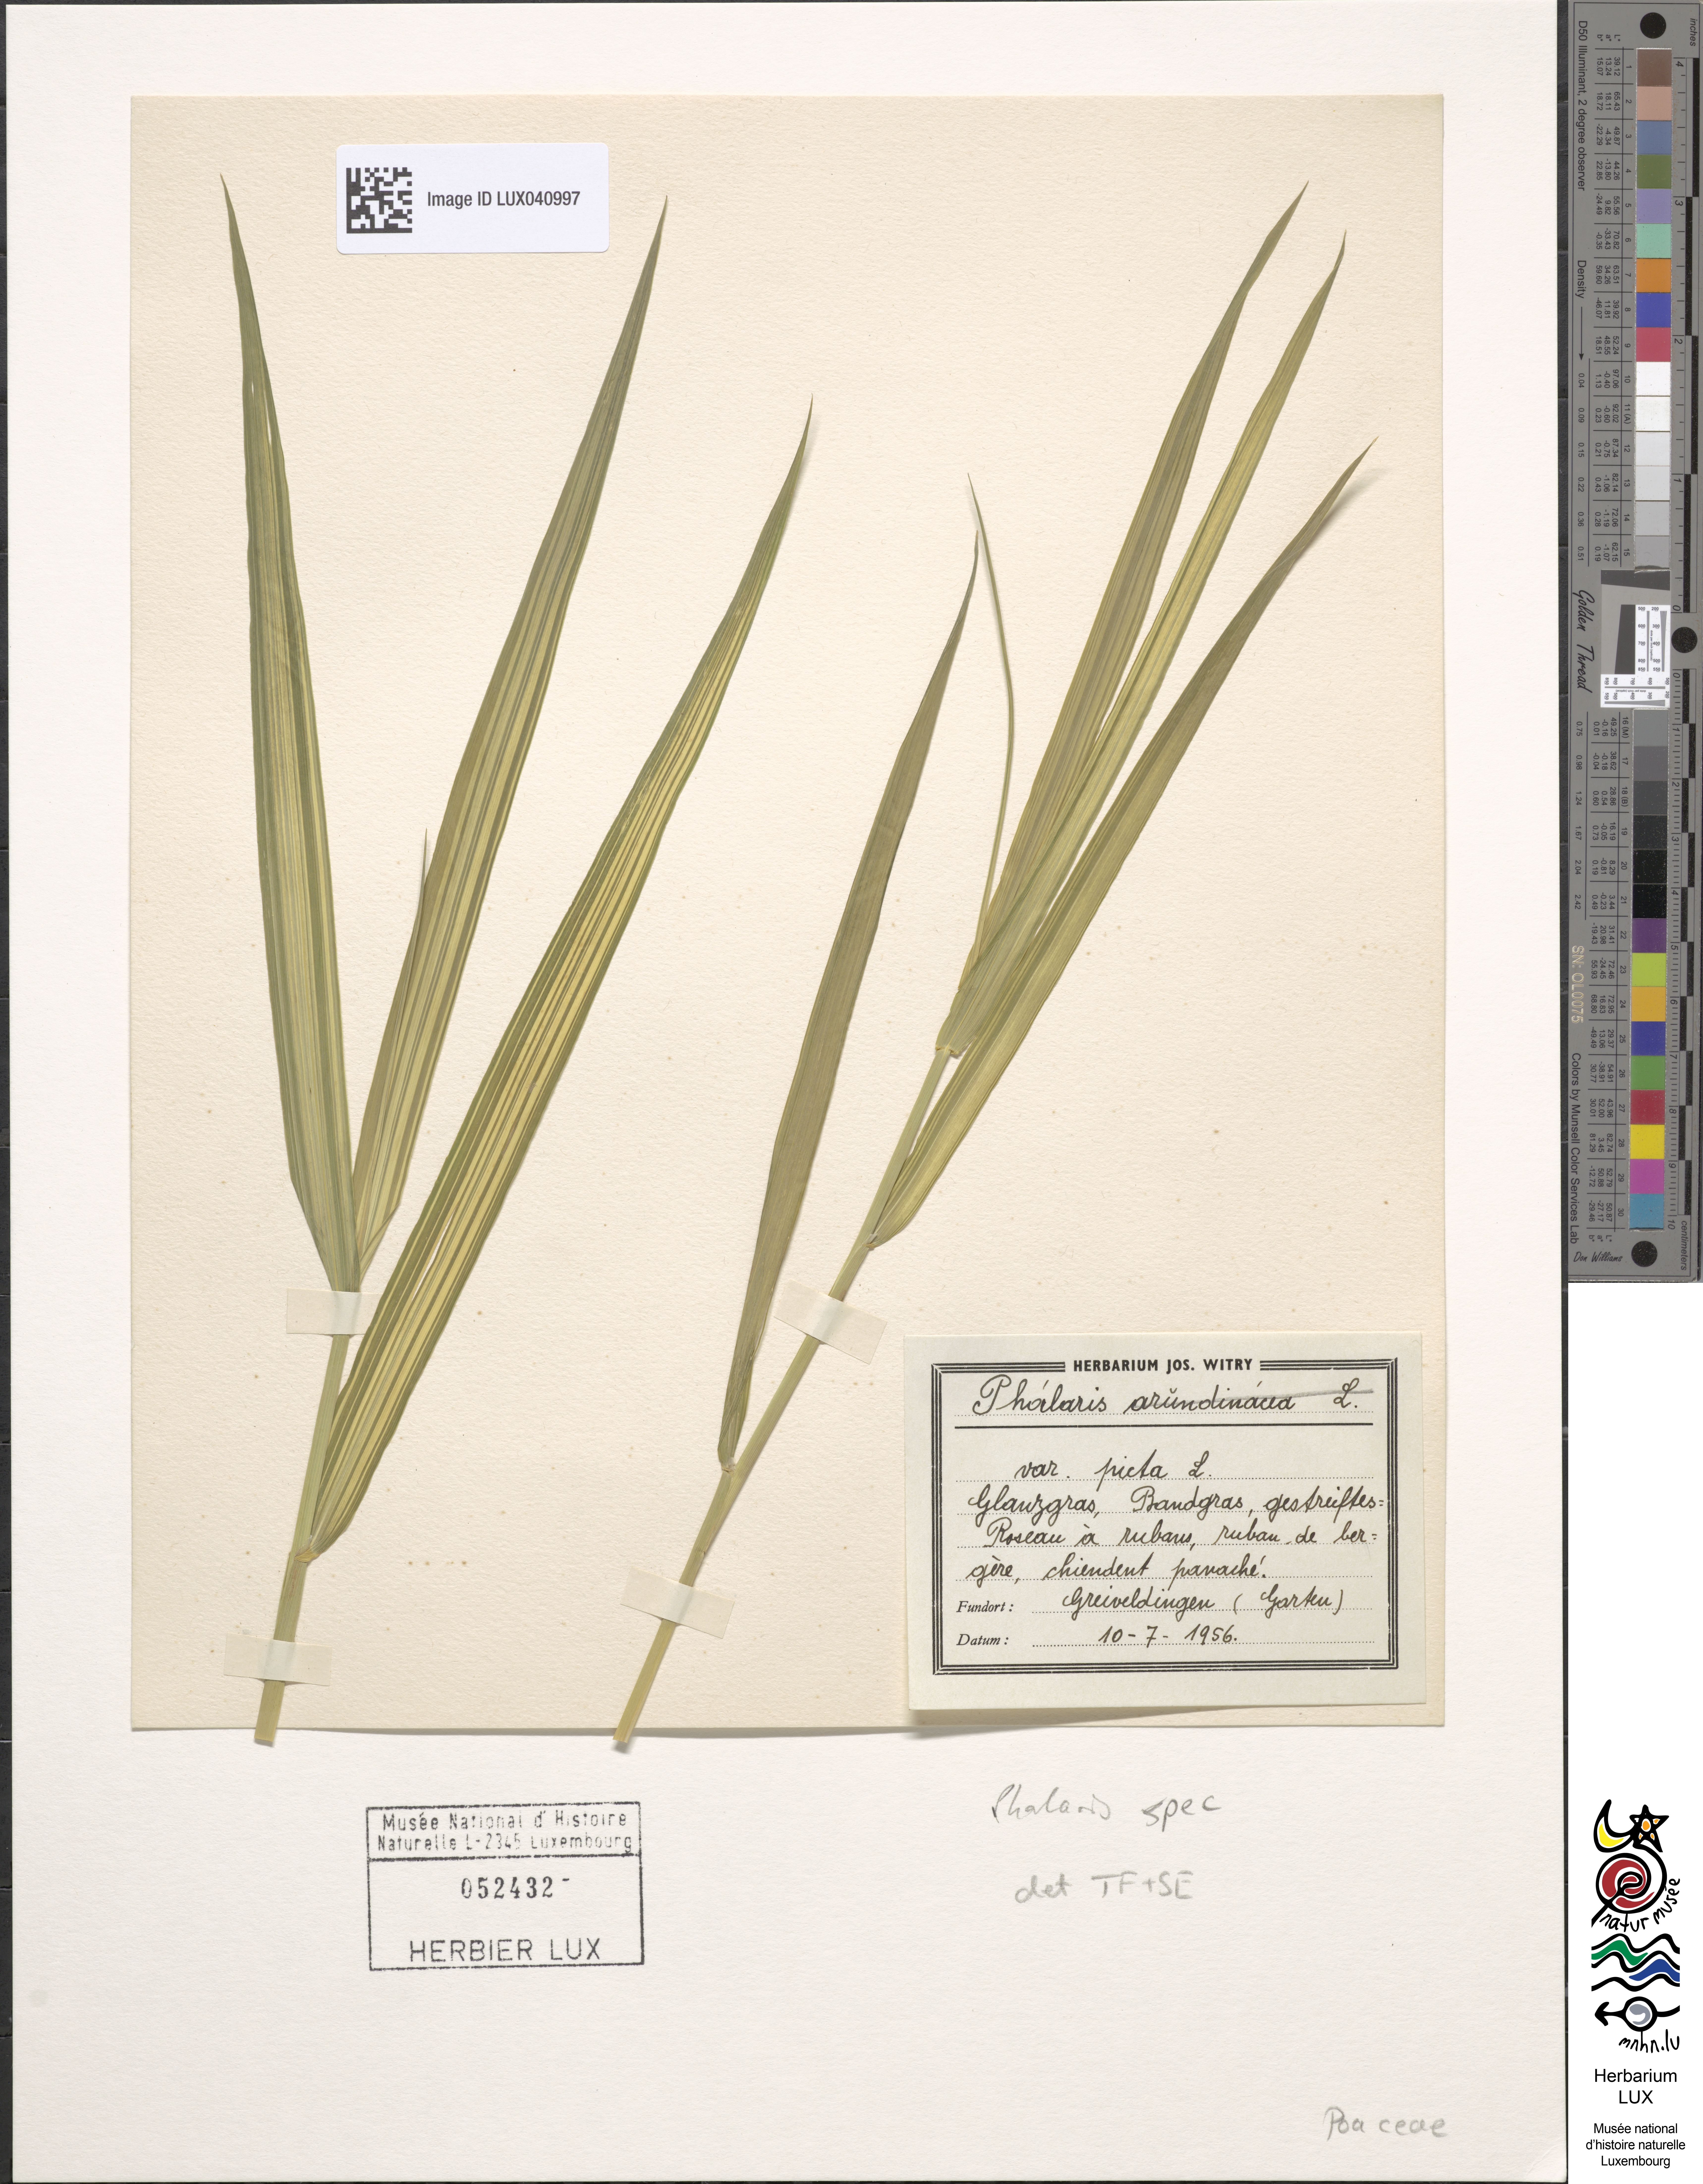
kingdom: Plantae
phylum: Tracheophyta
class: Liliopsida
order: Poales
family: Poaceae
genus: Phalaris
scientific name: Phalaris
